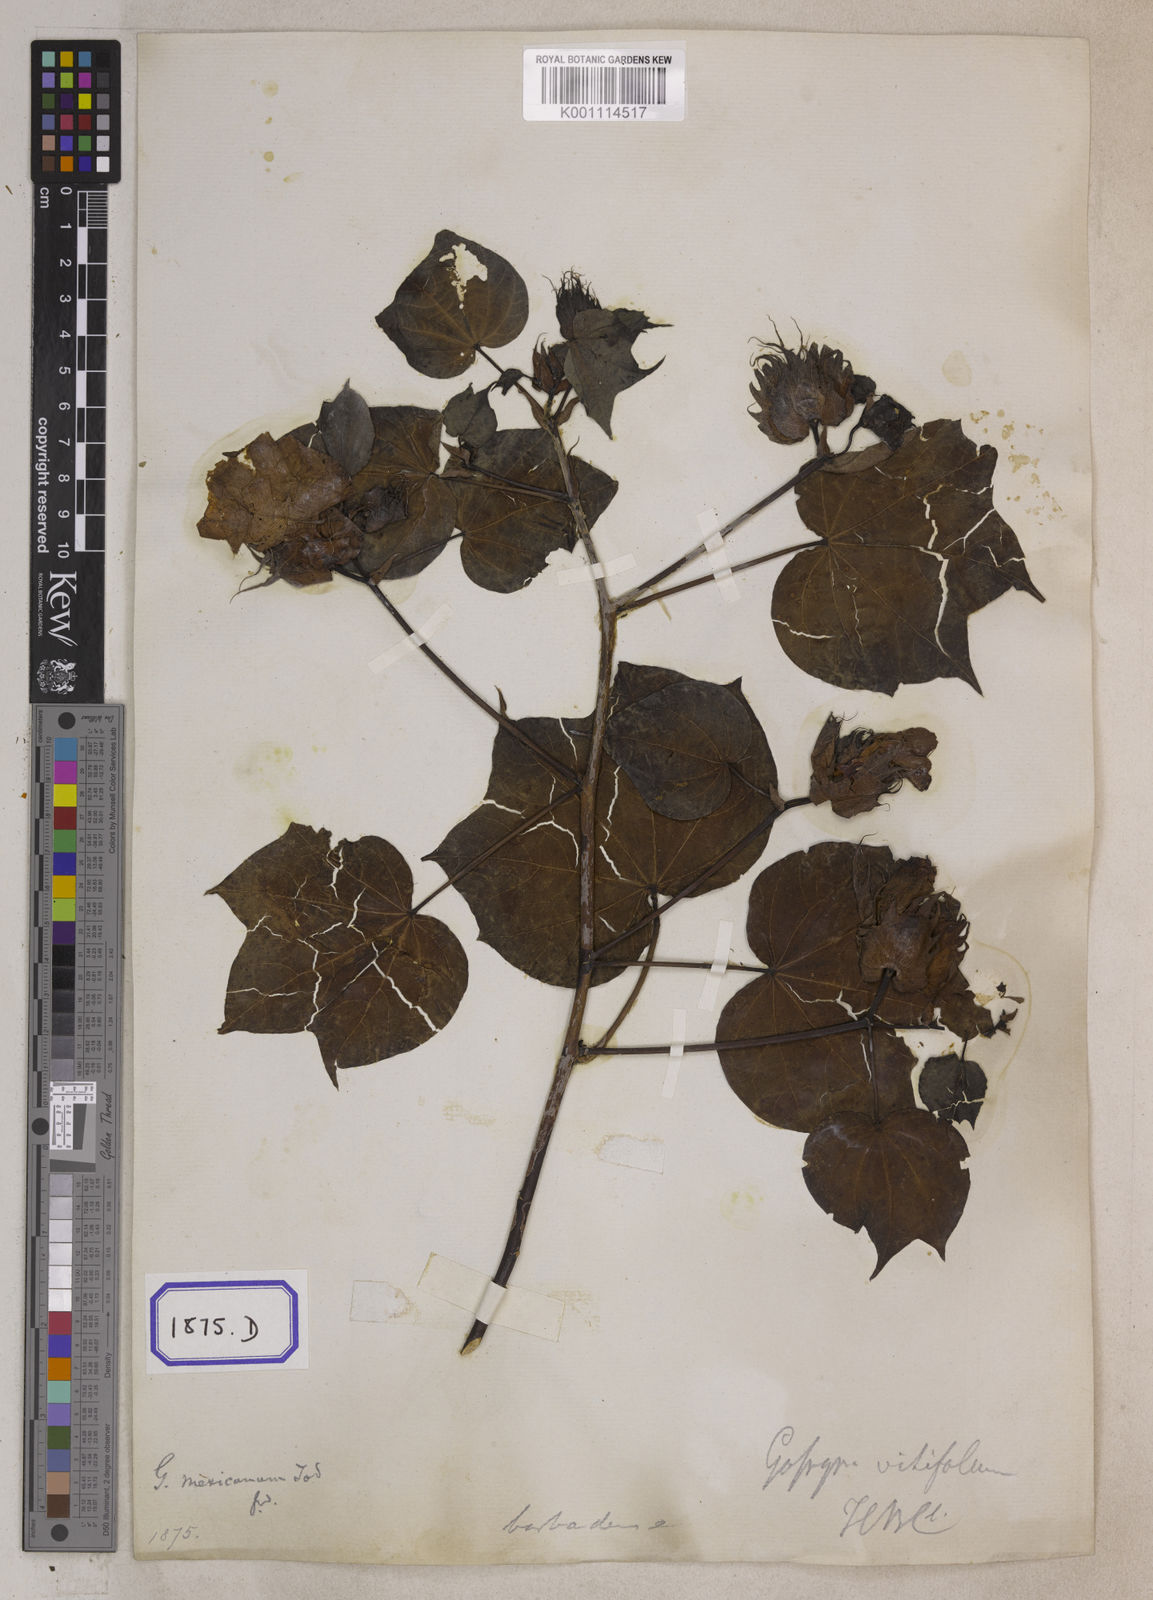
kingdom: Plantae
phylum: Tracheophyta
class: Magnoliopsida
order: Malvales
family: Malvaceae
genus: Gossypium
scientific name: Gossypium barbadense
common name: Creole cotton
